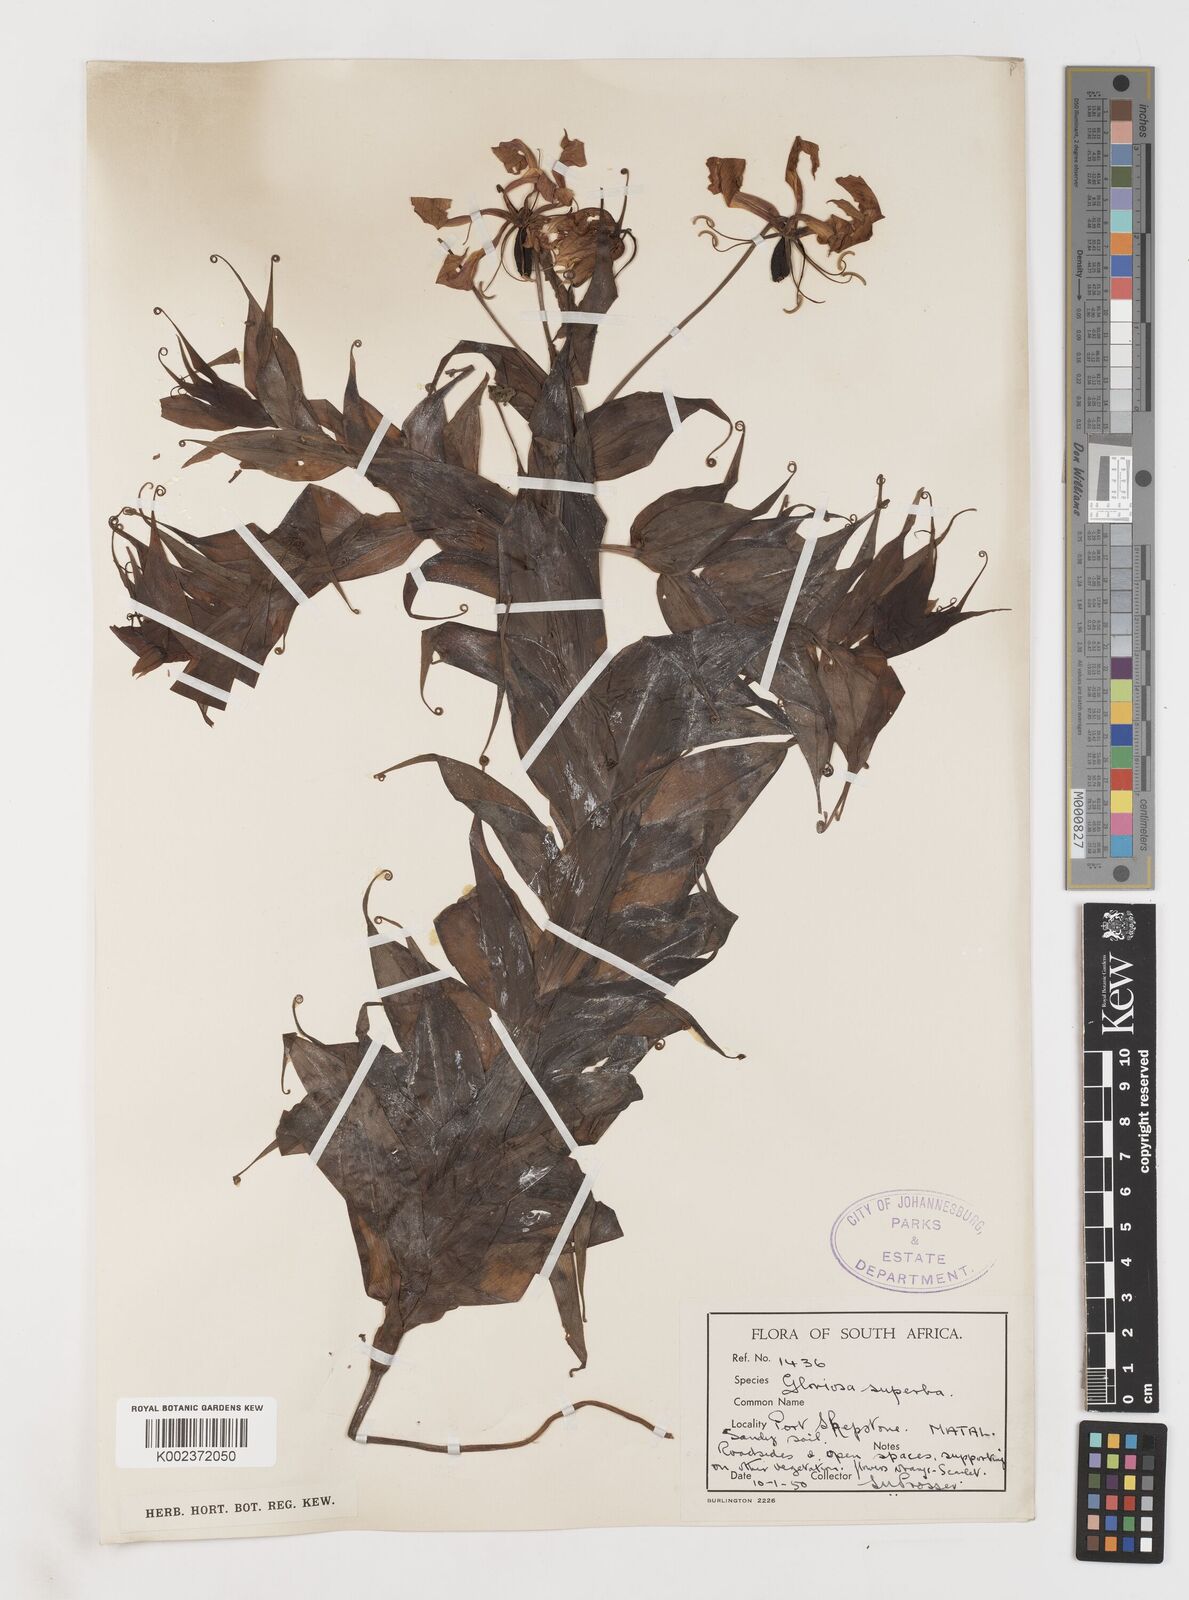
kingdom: Plantae
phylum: Tracheophyta
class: Liliopsida
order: Liliales
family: Colchicaceae
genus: Gloriosa
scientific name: Gloriosa simplex
